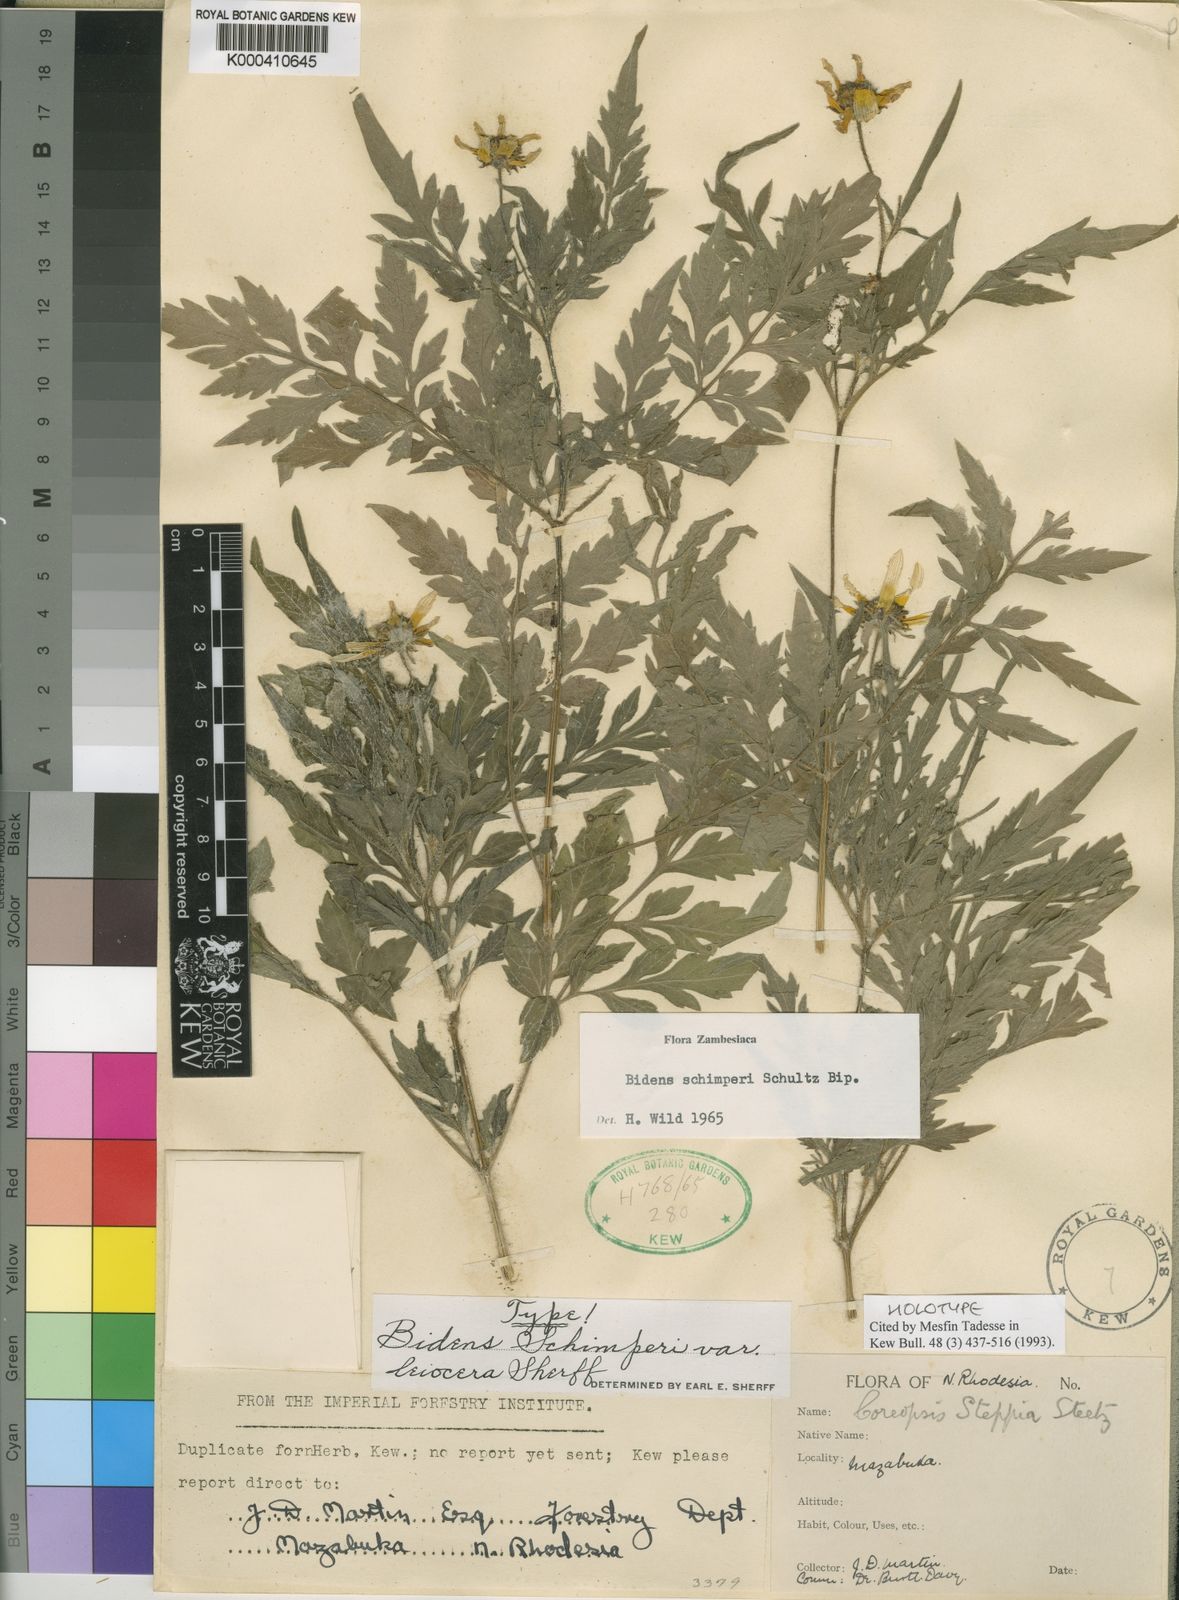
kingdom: Plantae
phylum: Tracheophyta
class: Magnoliopsida
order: Asterales
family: Asteraceae
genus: Bidens
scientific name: Bidens schimperi
